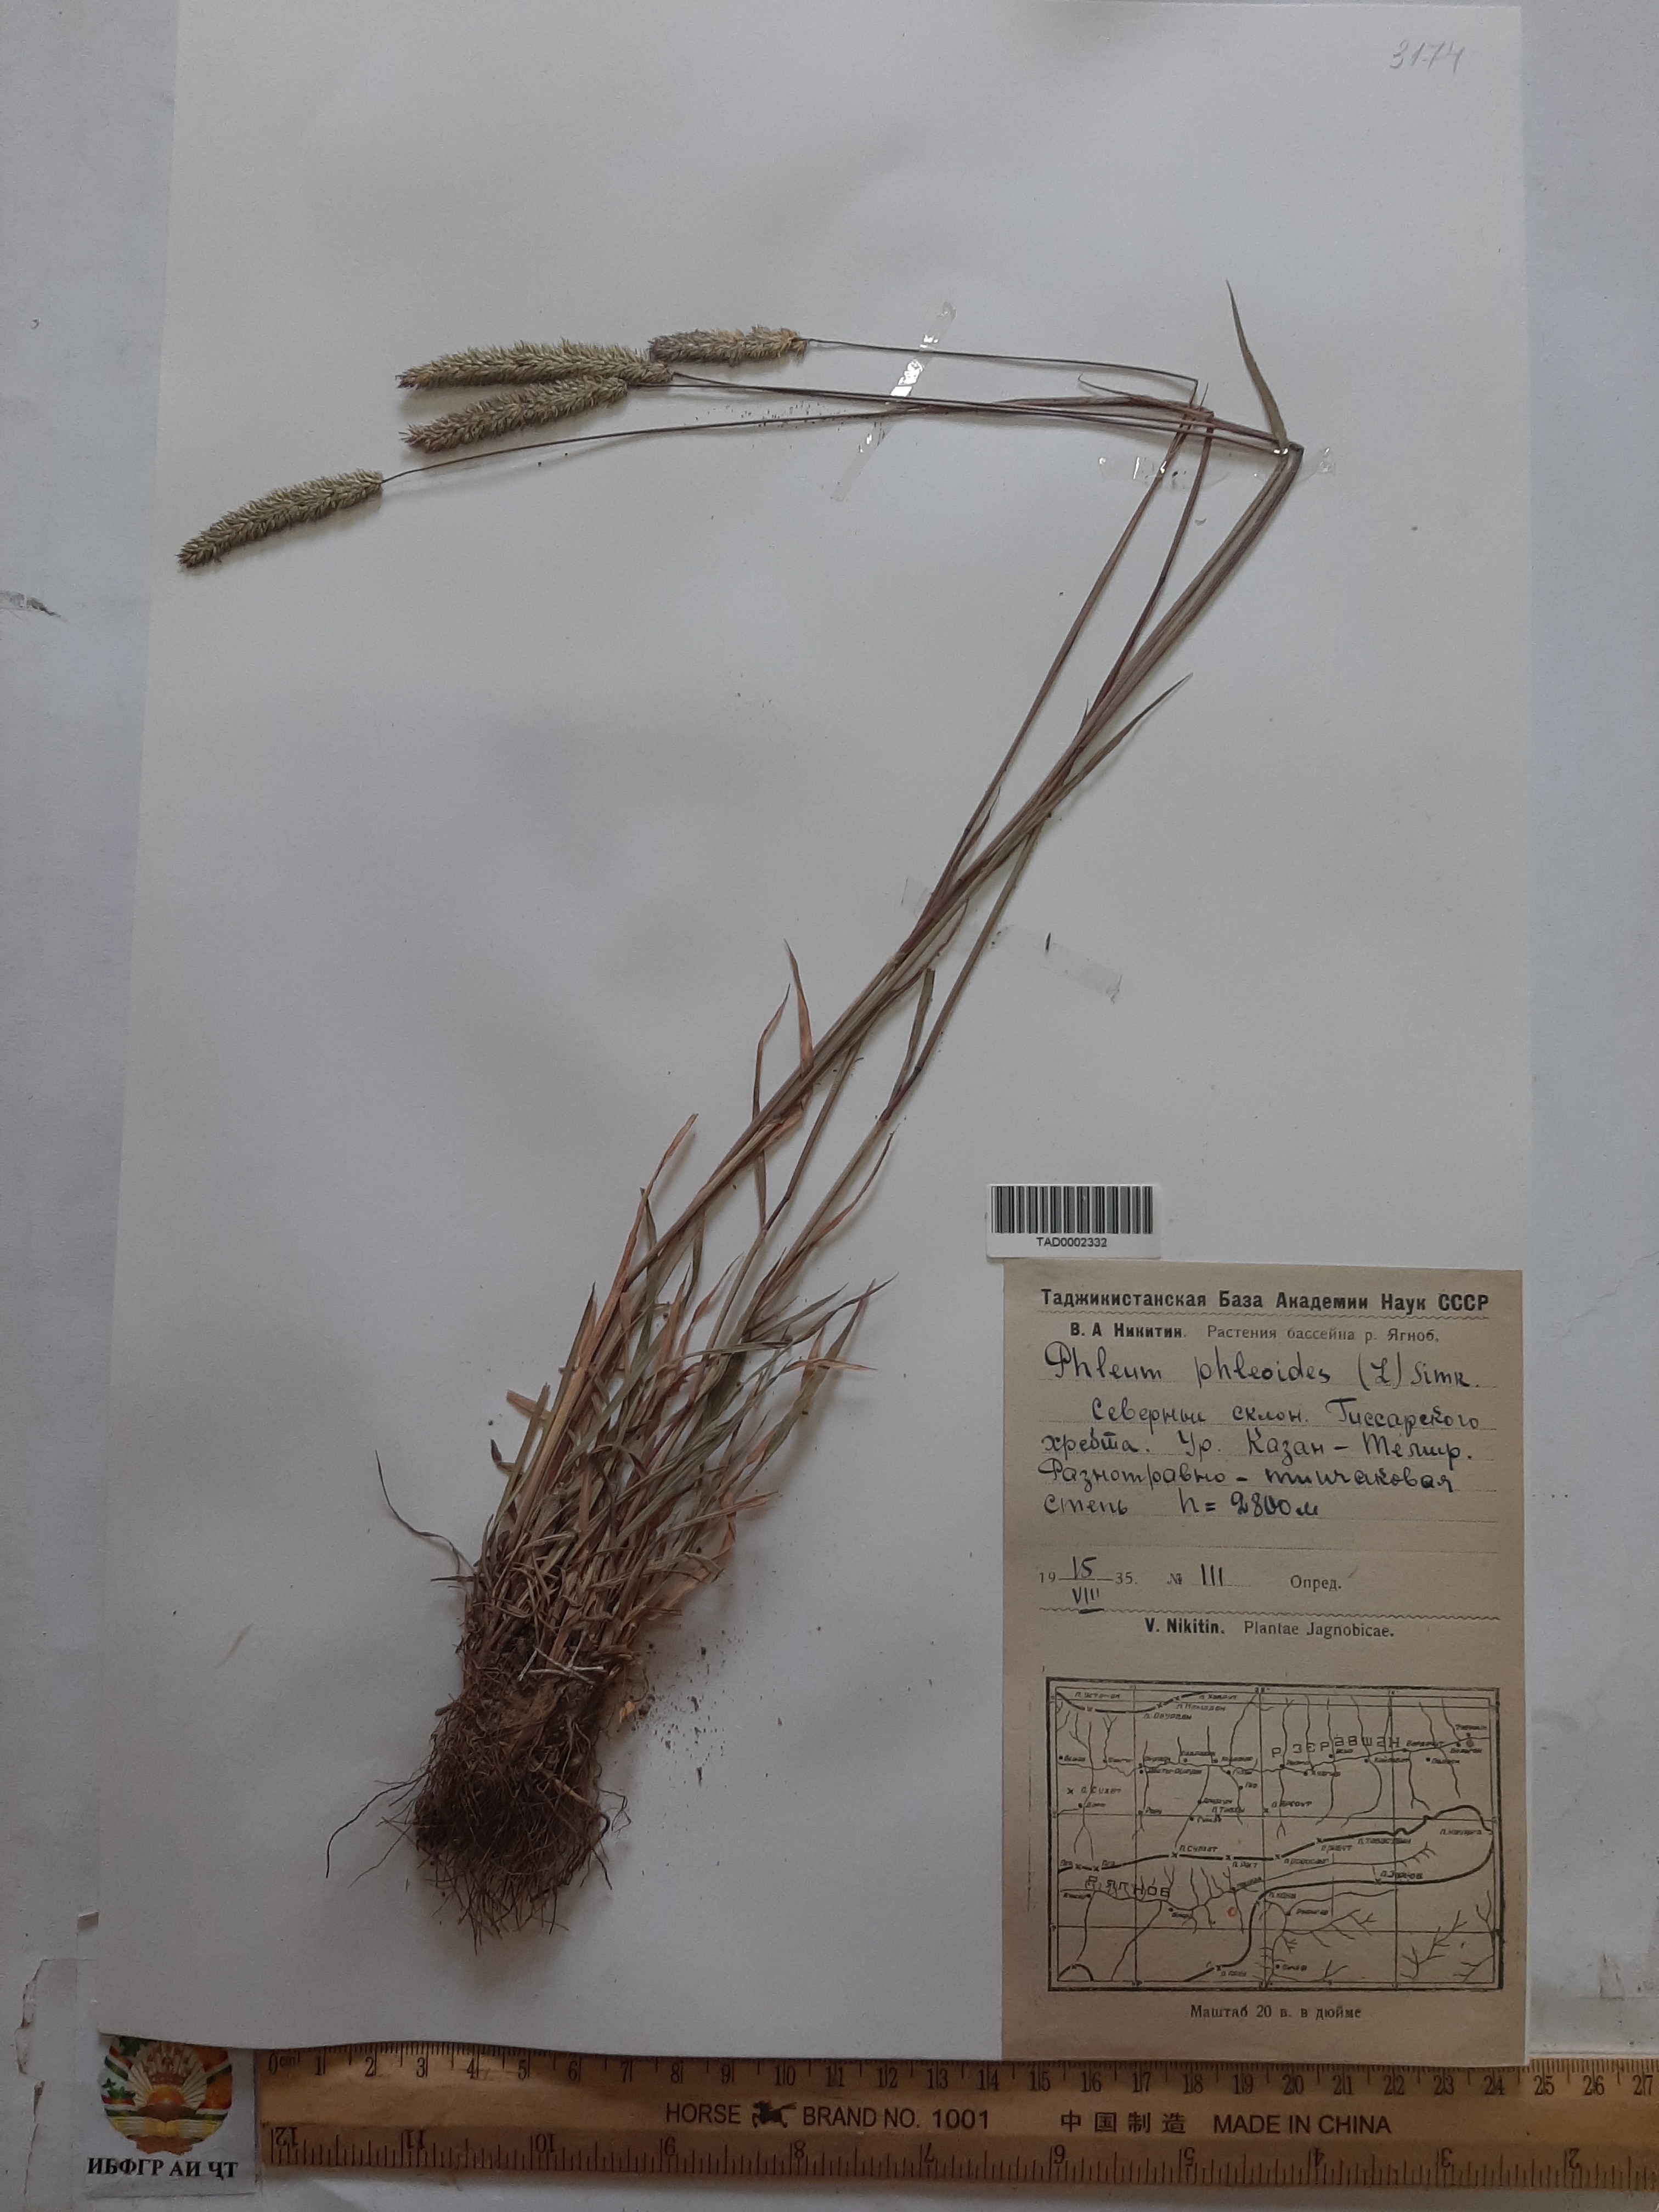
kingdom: Plantae
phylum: Tracheophyta
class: Liliopsida
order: Poales
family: Poaceae
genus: Phleum
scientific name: Phleum phleoides
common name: Purple-stem cat's-tail
